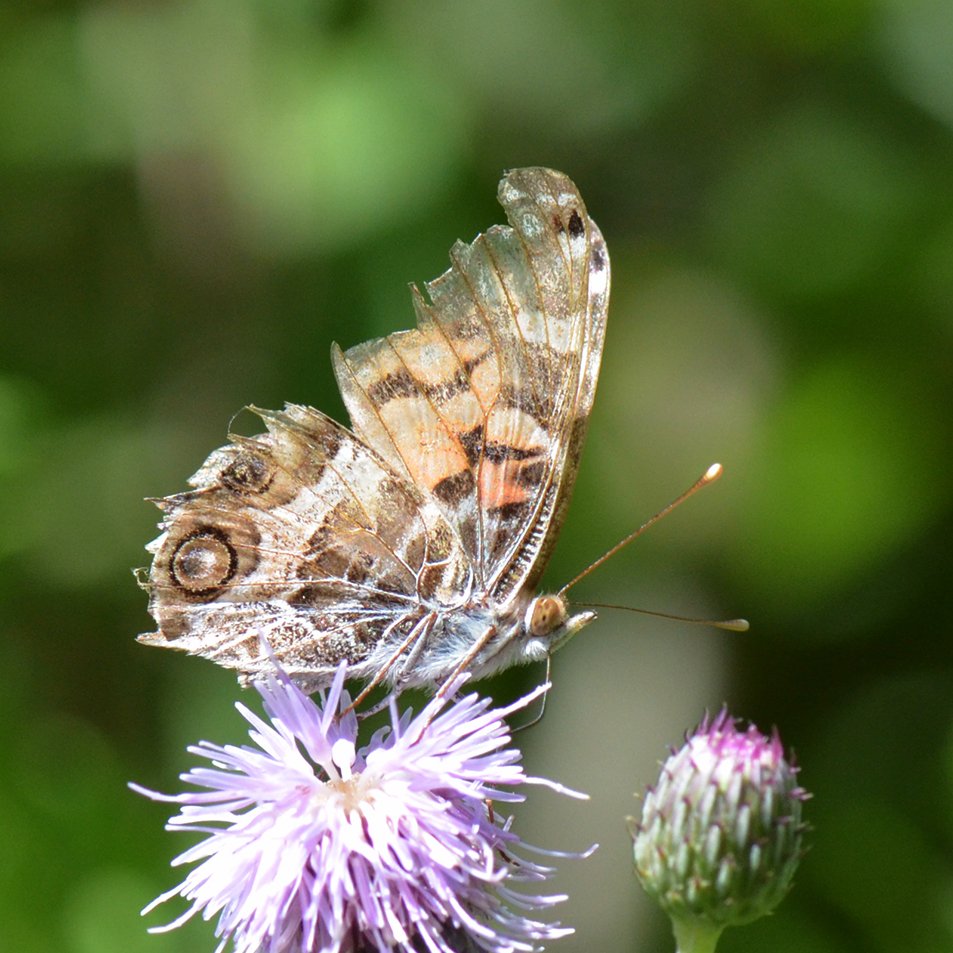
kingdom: Animalia
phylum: Arthropoda
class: Insecta
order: Lepidoptera
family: Nymphalidae
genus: Vanessa
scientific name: Vanessa virginiensis
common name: American Lady
